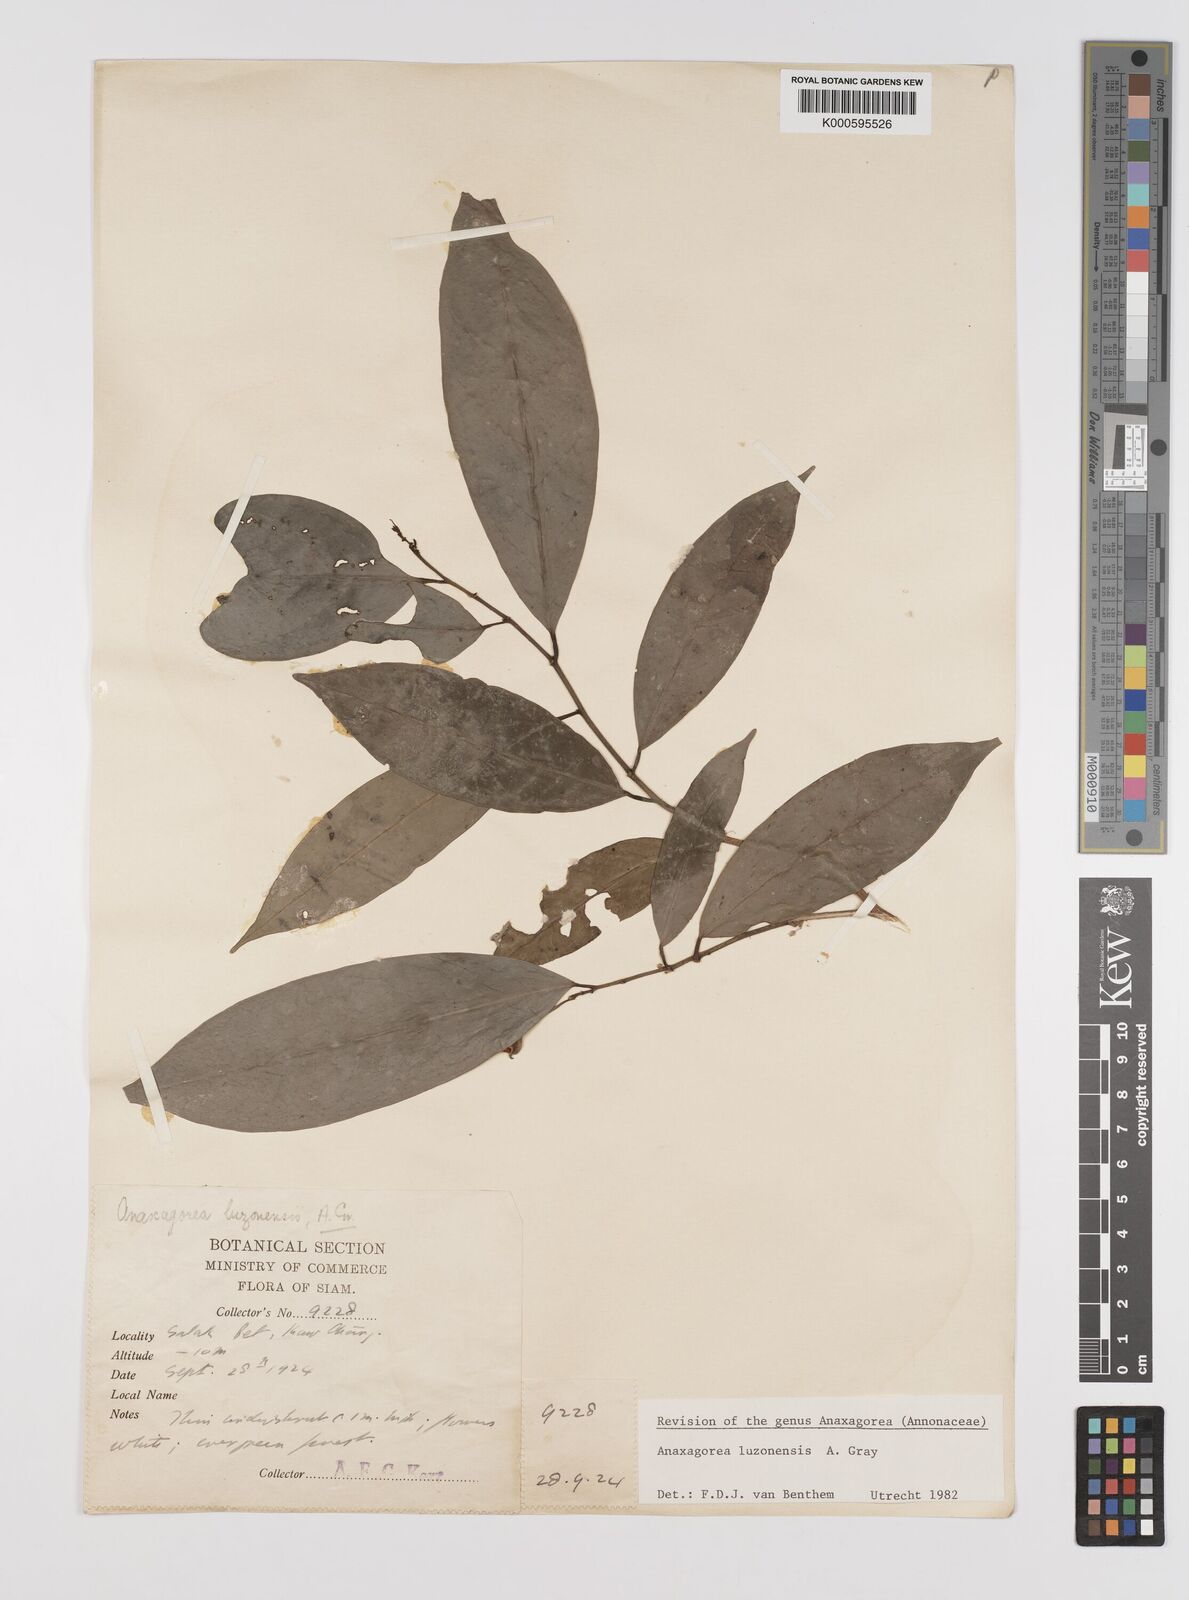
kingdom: Plantae
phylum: Tracheophyta
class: Magnoliopsida
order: Magnoliales
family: Annonaceae
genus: Anaxagorea
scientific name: Anaxagorea luzonensis
